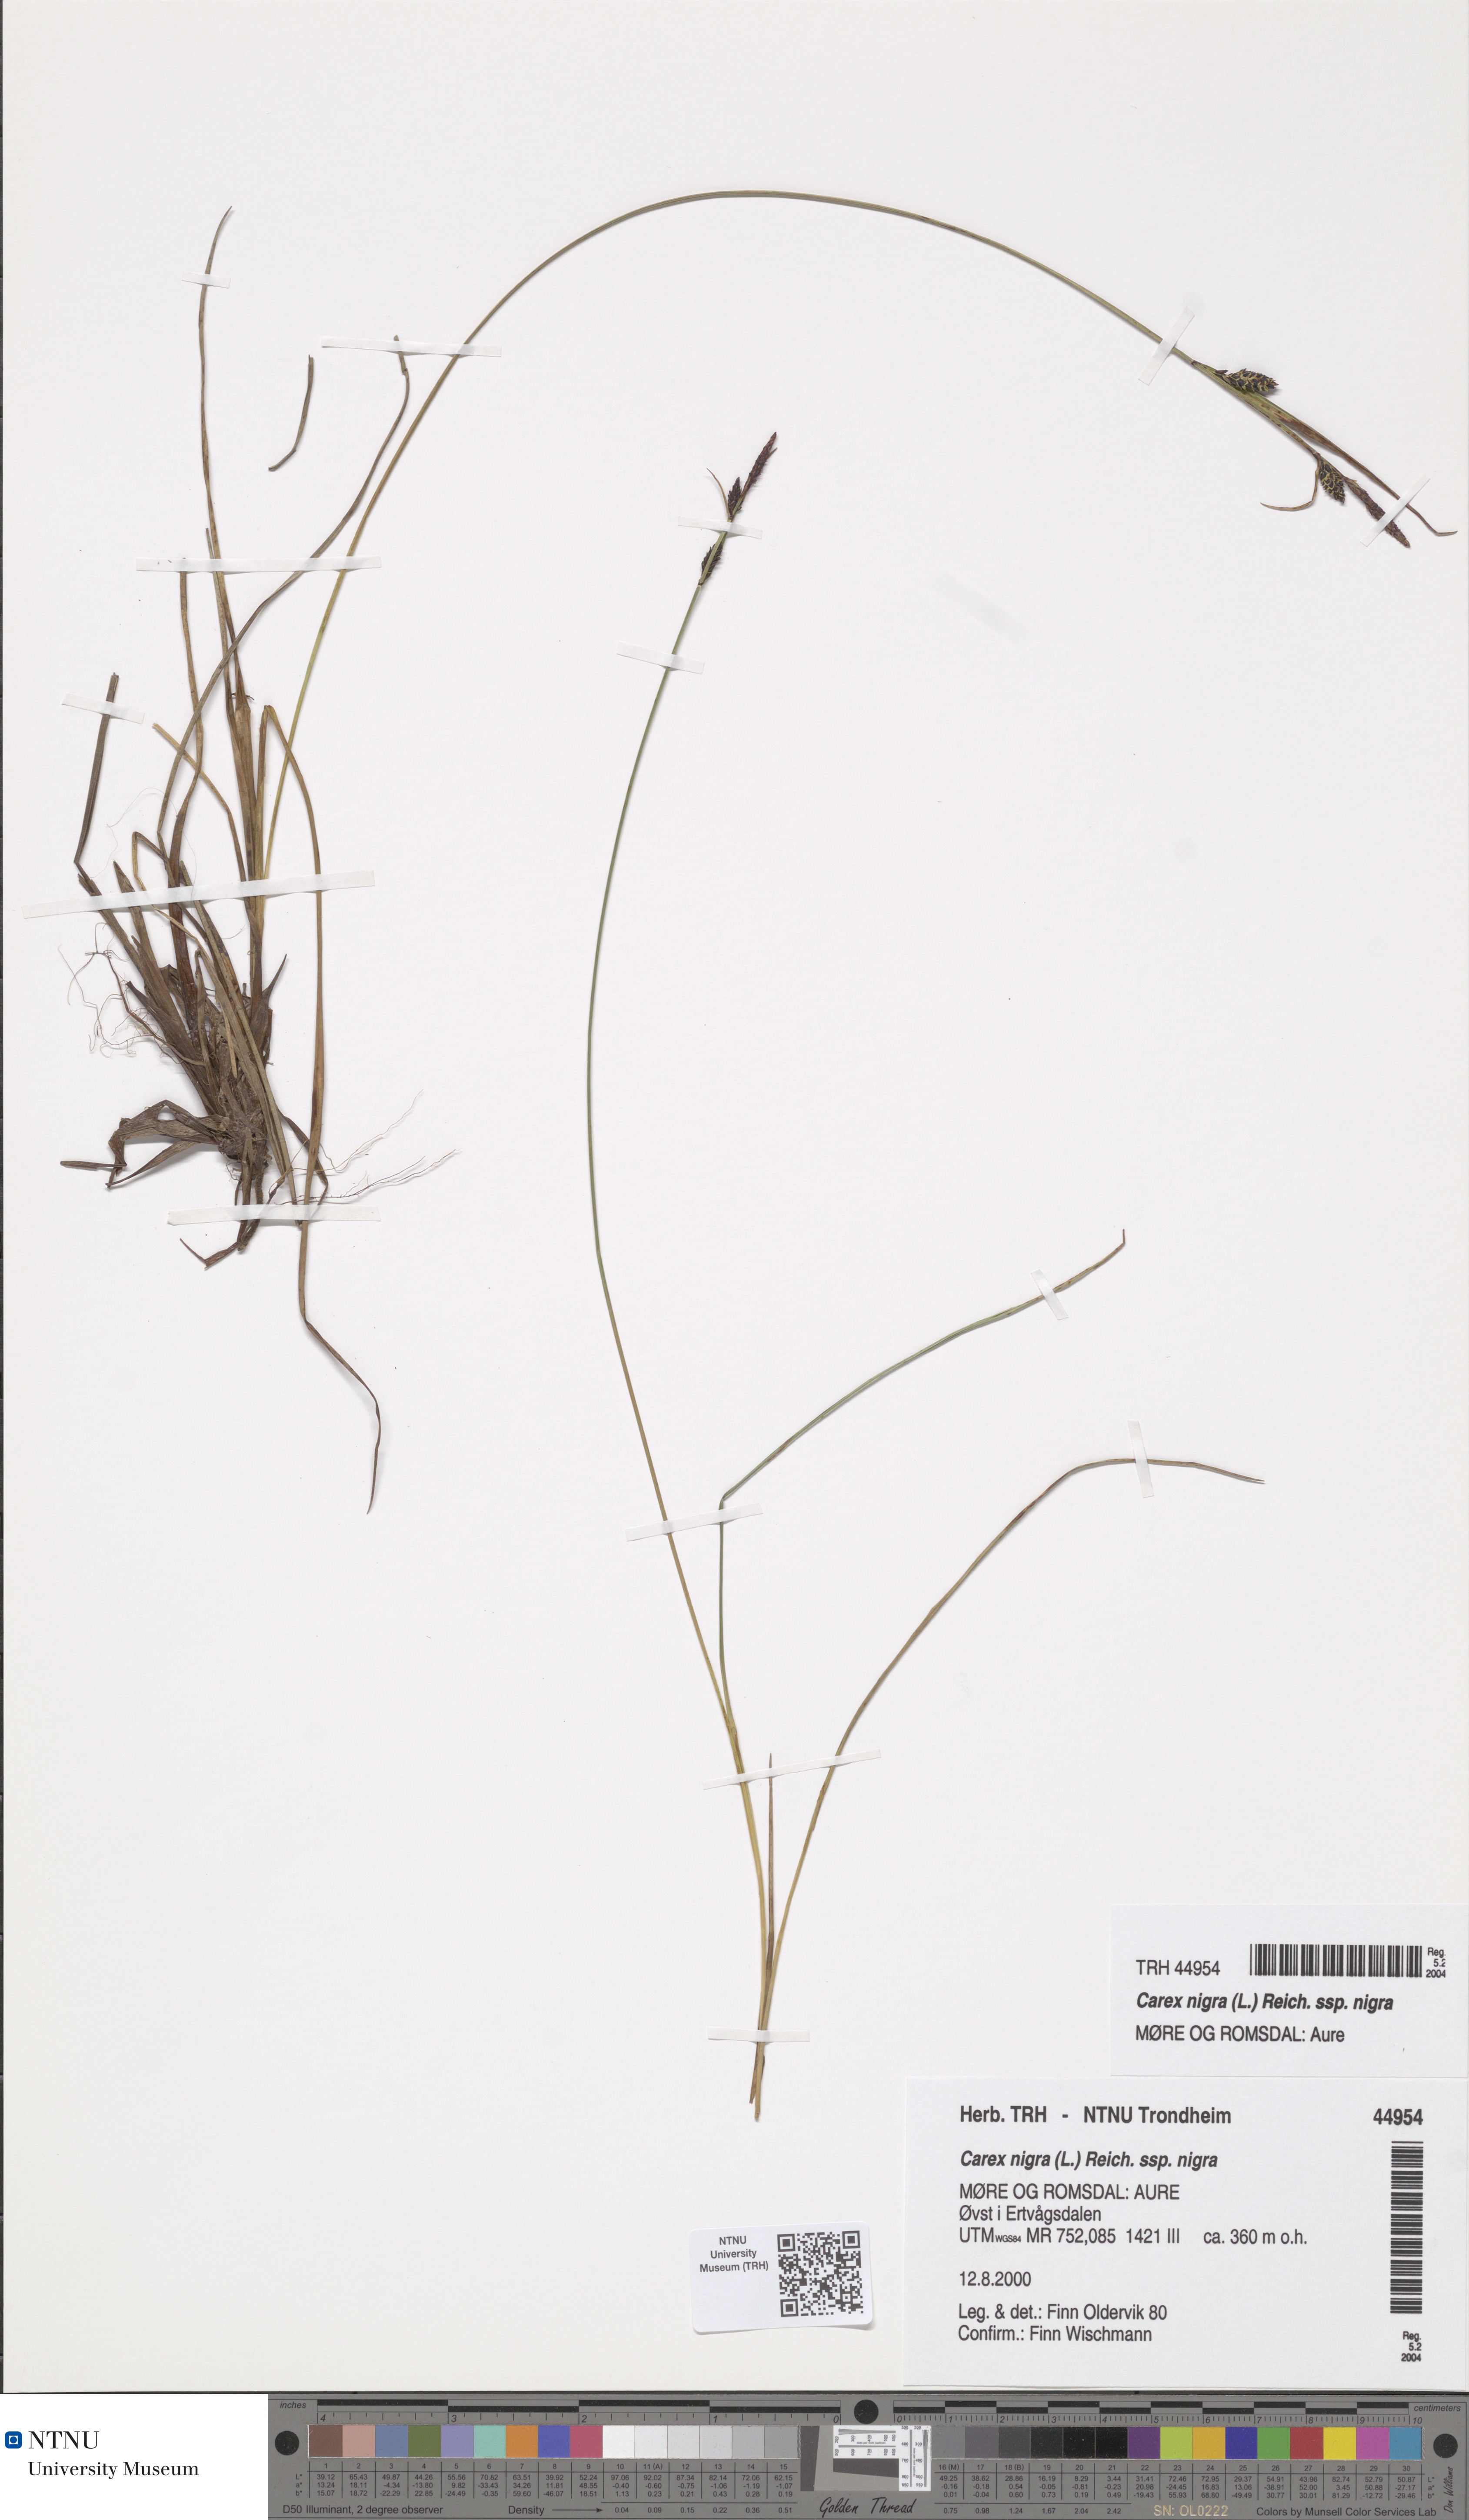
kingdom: Plantae
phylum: Tracheophyta
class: Liliopsida
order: Poales
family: Cyperaceae
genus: Carex
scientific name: Carex nigra
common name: Common sedge
